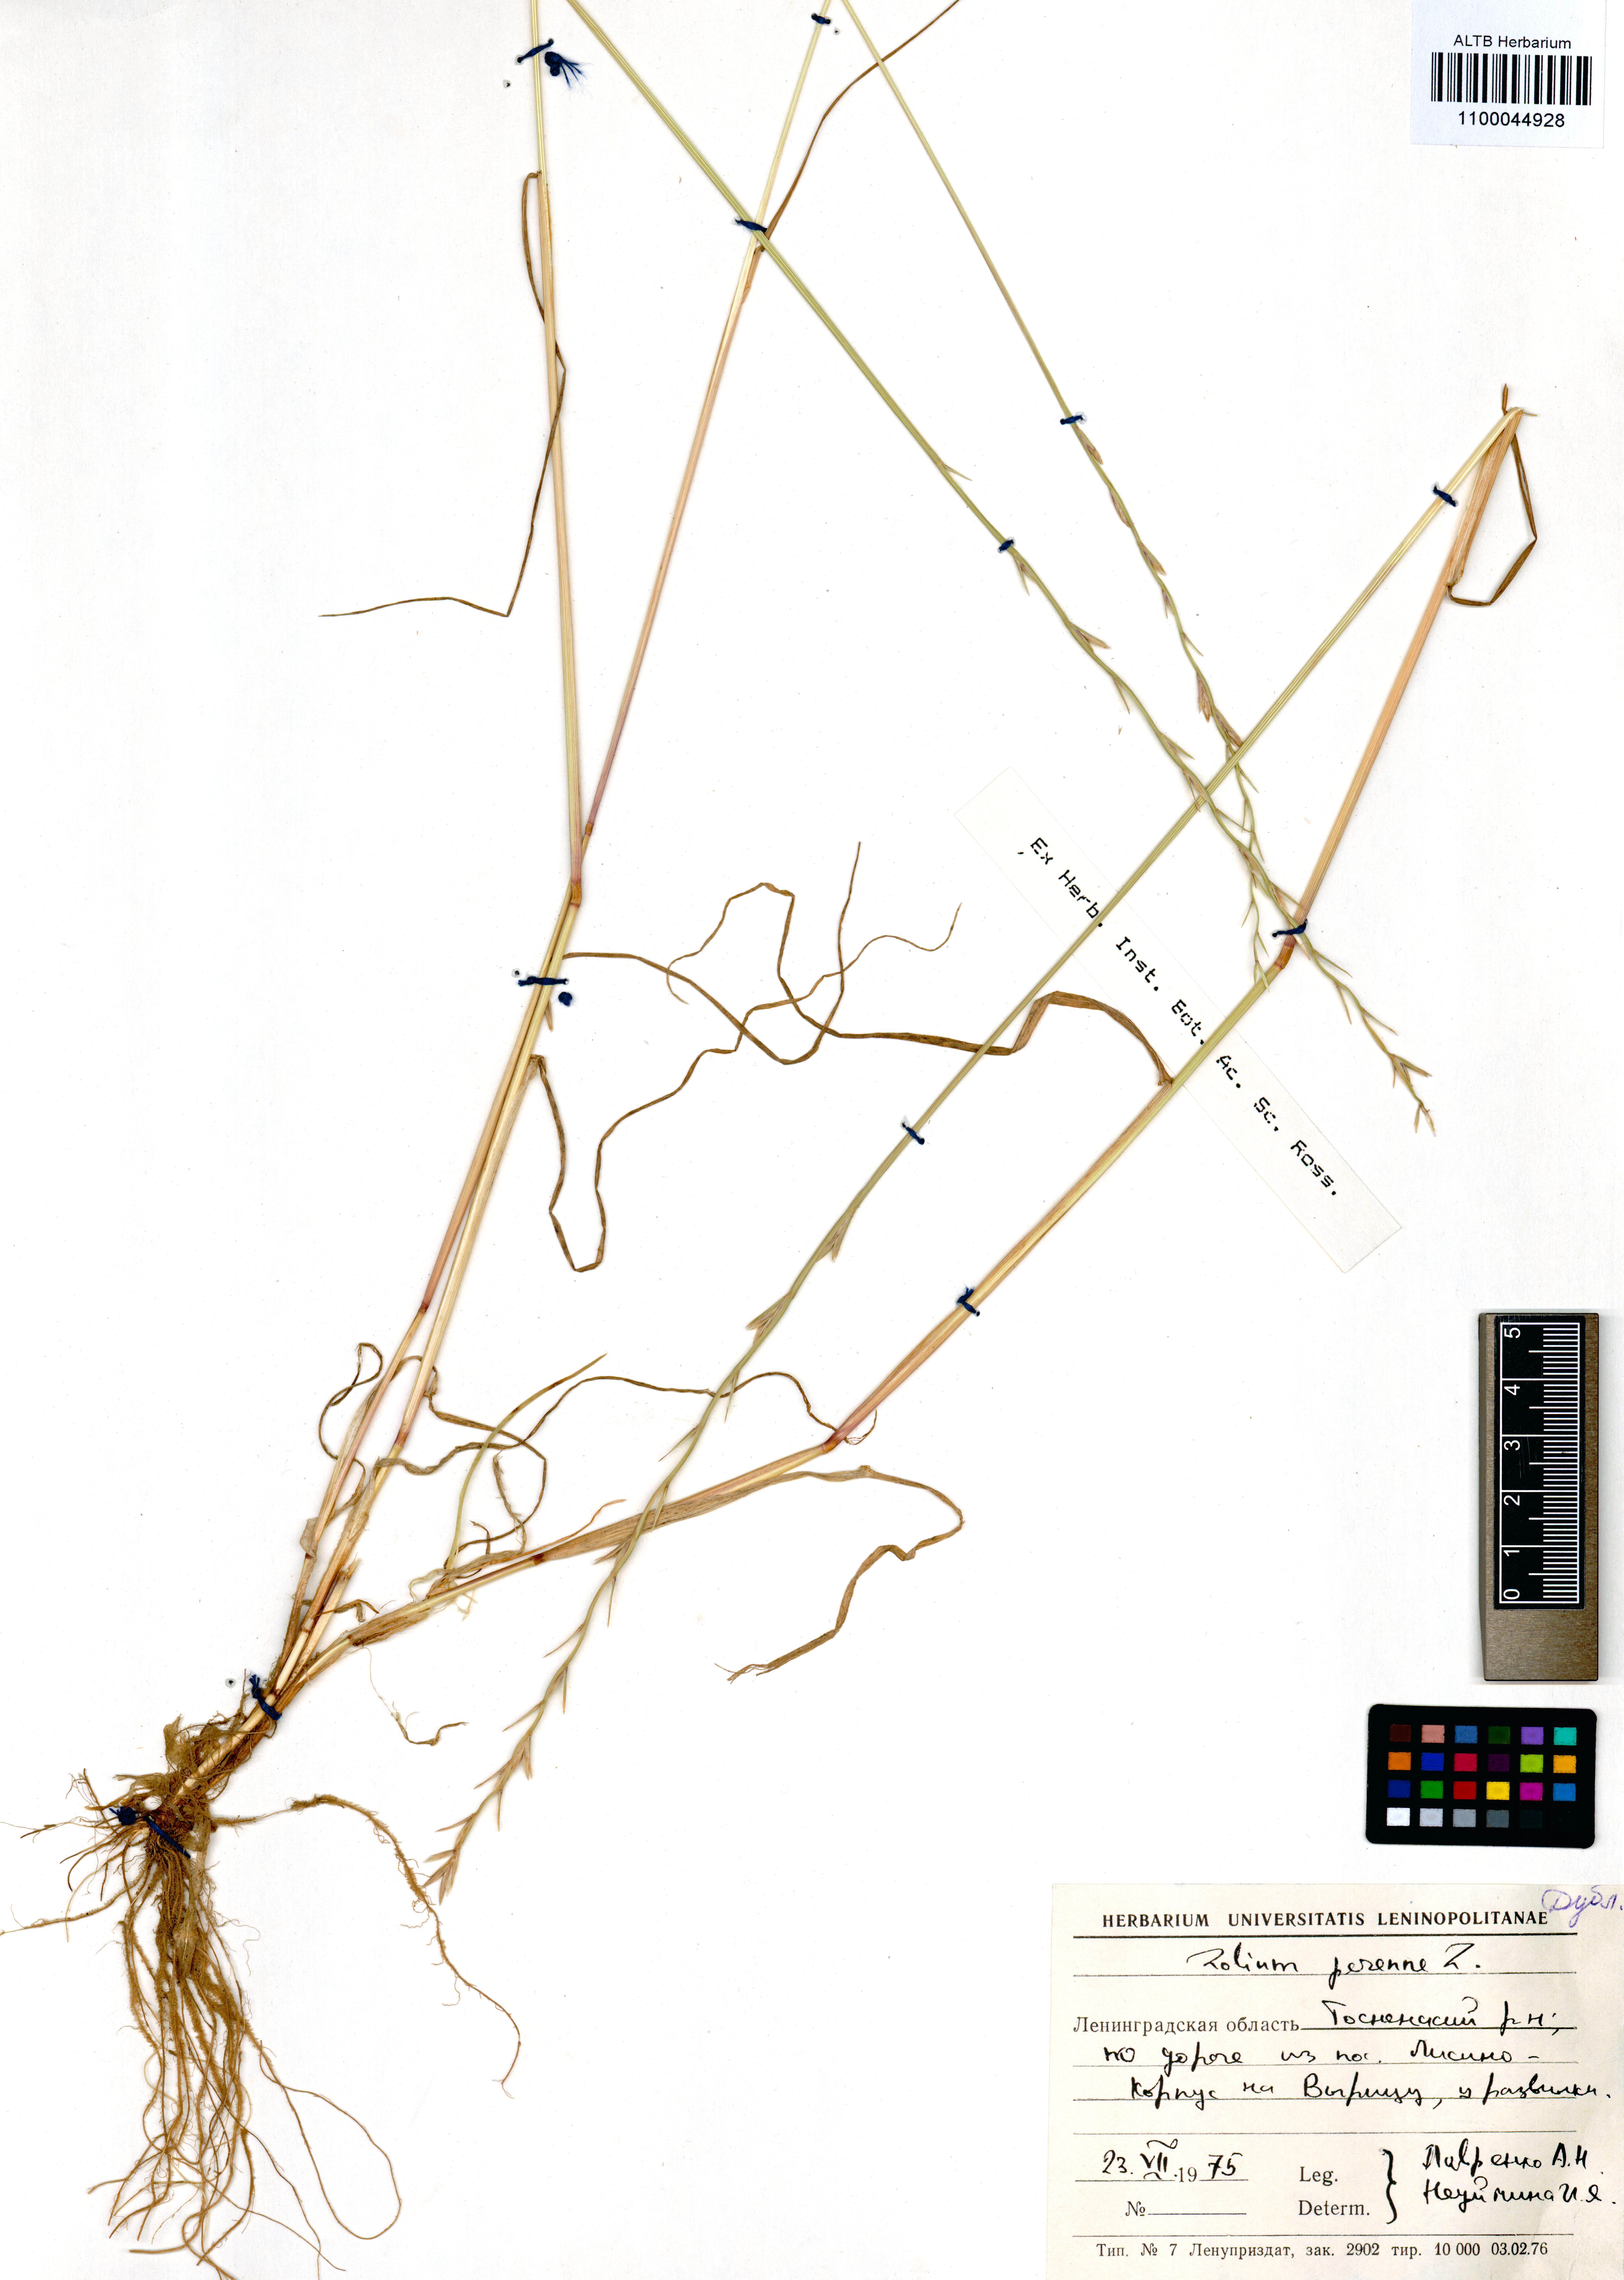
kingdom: Plantae
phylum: Tracheophyta
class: Liliopsida
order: Poales
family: Poaceae
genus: Lolium
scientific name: Lolium perenne
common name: Perennial ryegrass
